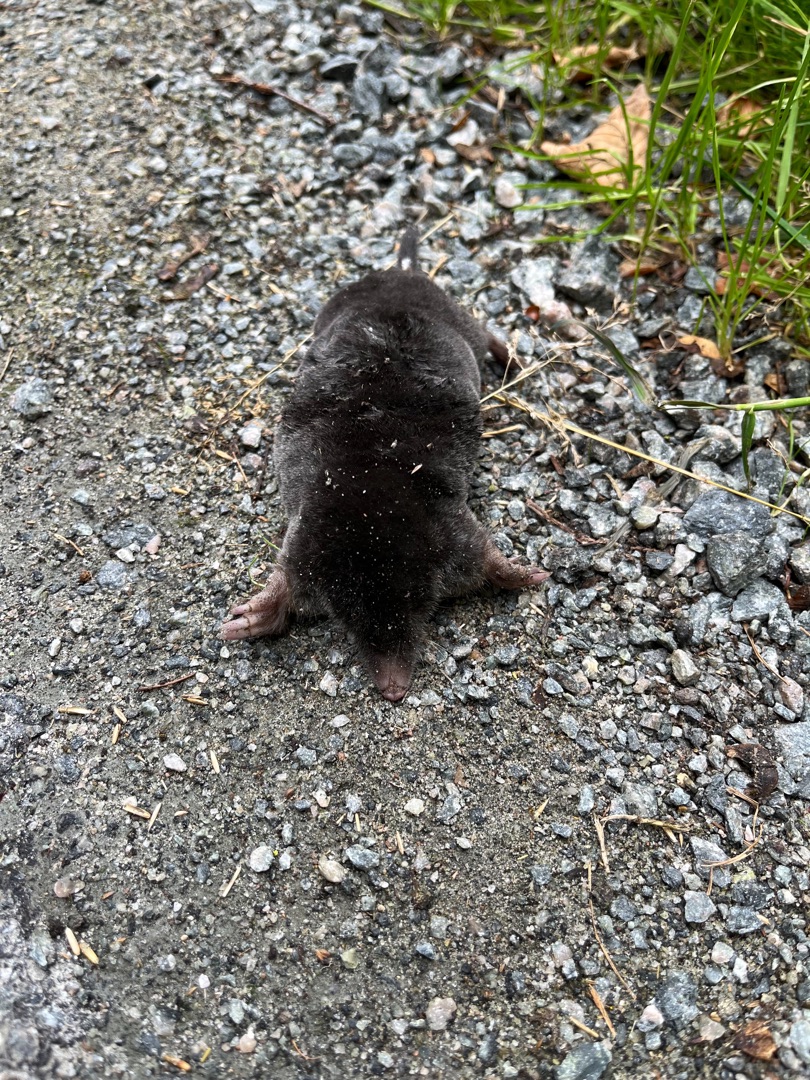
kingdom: Animalia
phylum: Chordata
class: Mammalia
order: Soricomorpha
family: Talpidae
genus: Talpa
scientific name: Talpa europaea
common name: Muldvarp
